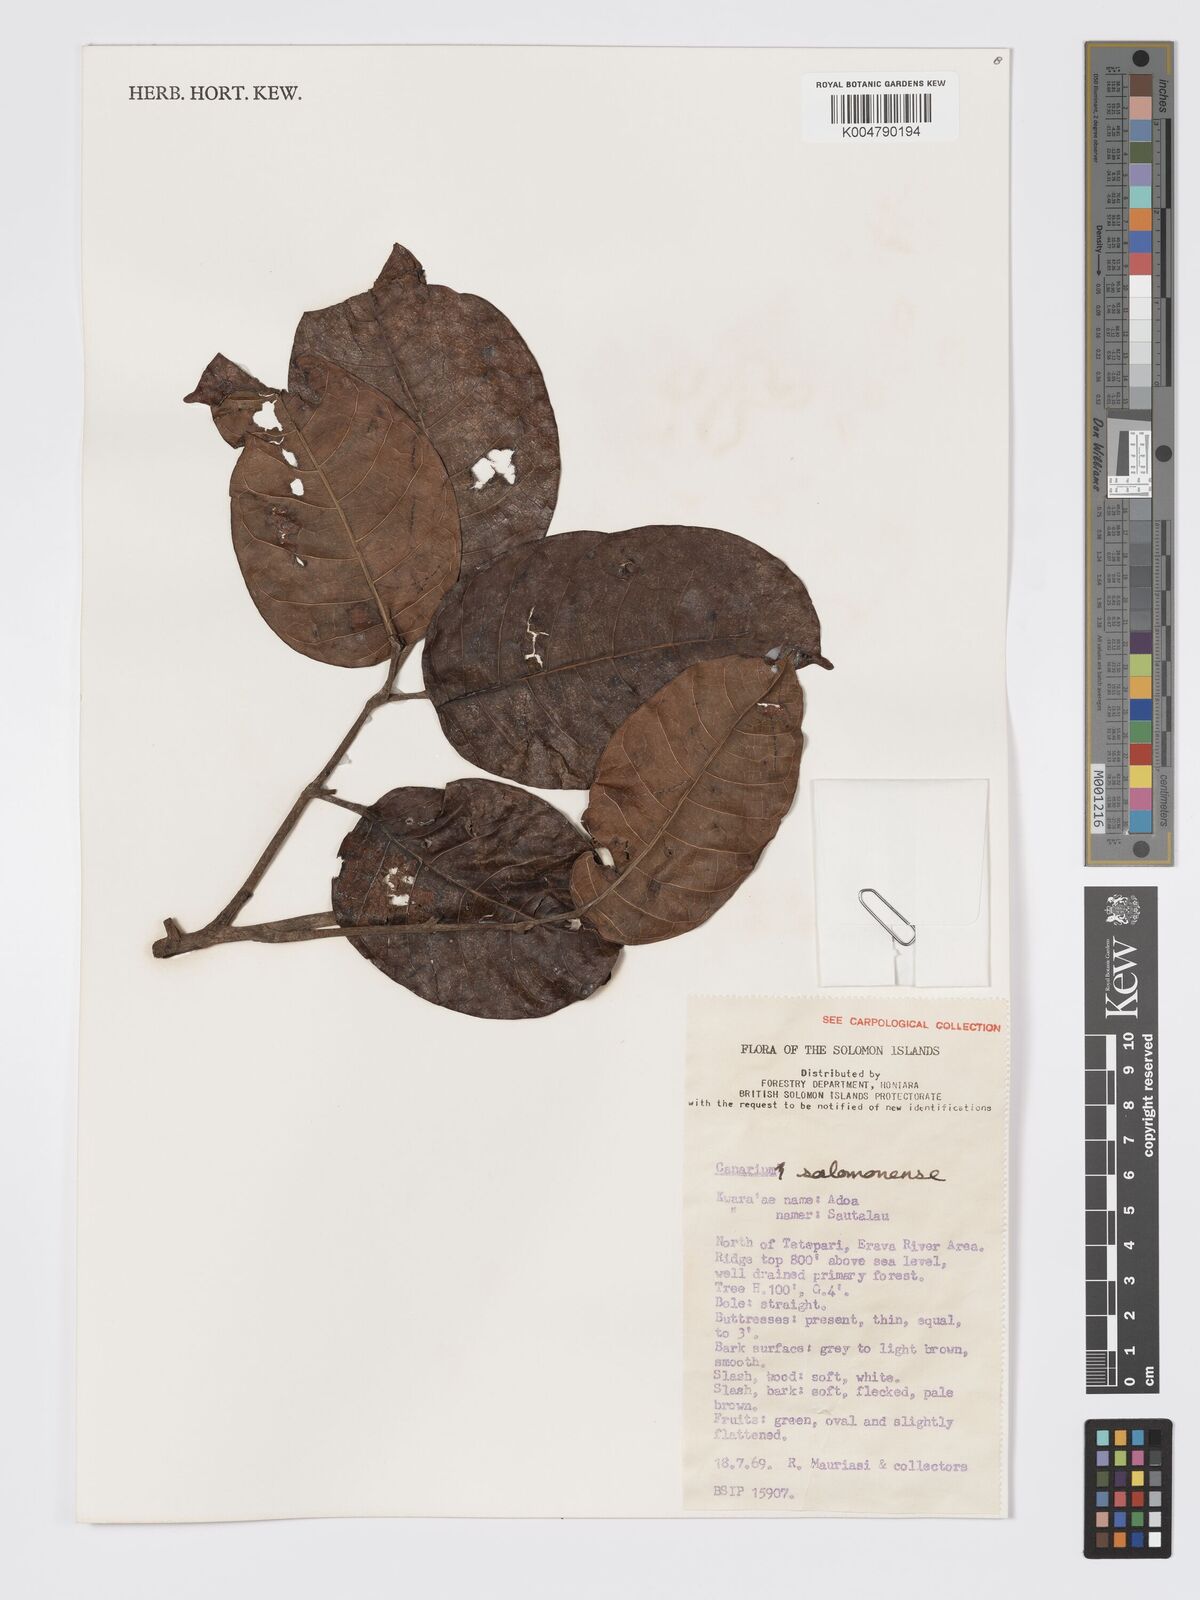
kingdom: Plantae
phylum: Tracheophyta
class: Magnoliopsida
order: Sapindales
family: Burseraceae
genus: Canarium
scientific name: Canarium salomonense
